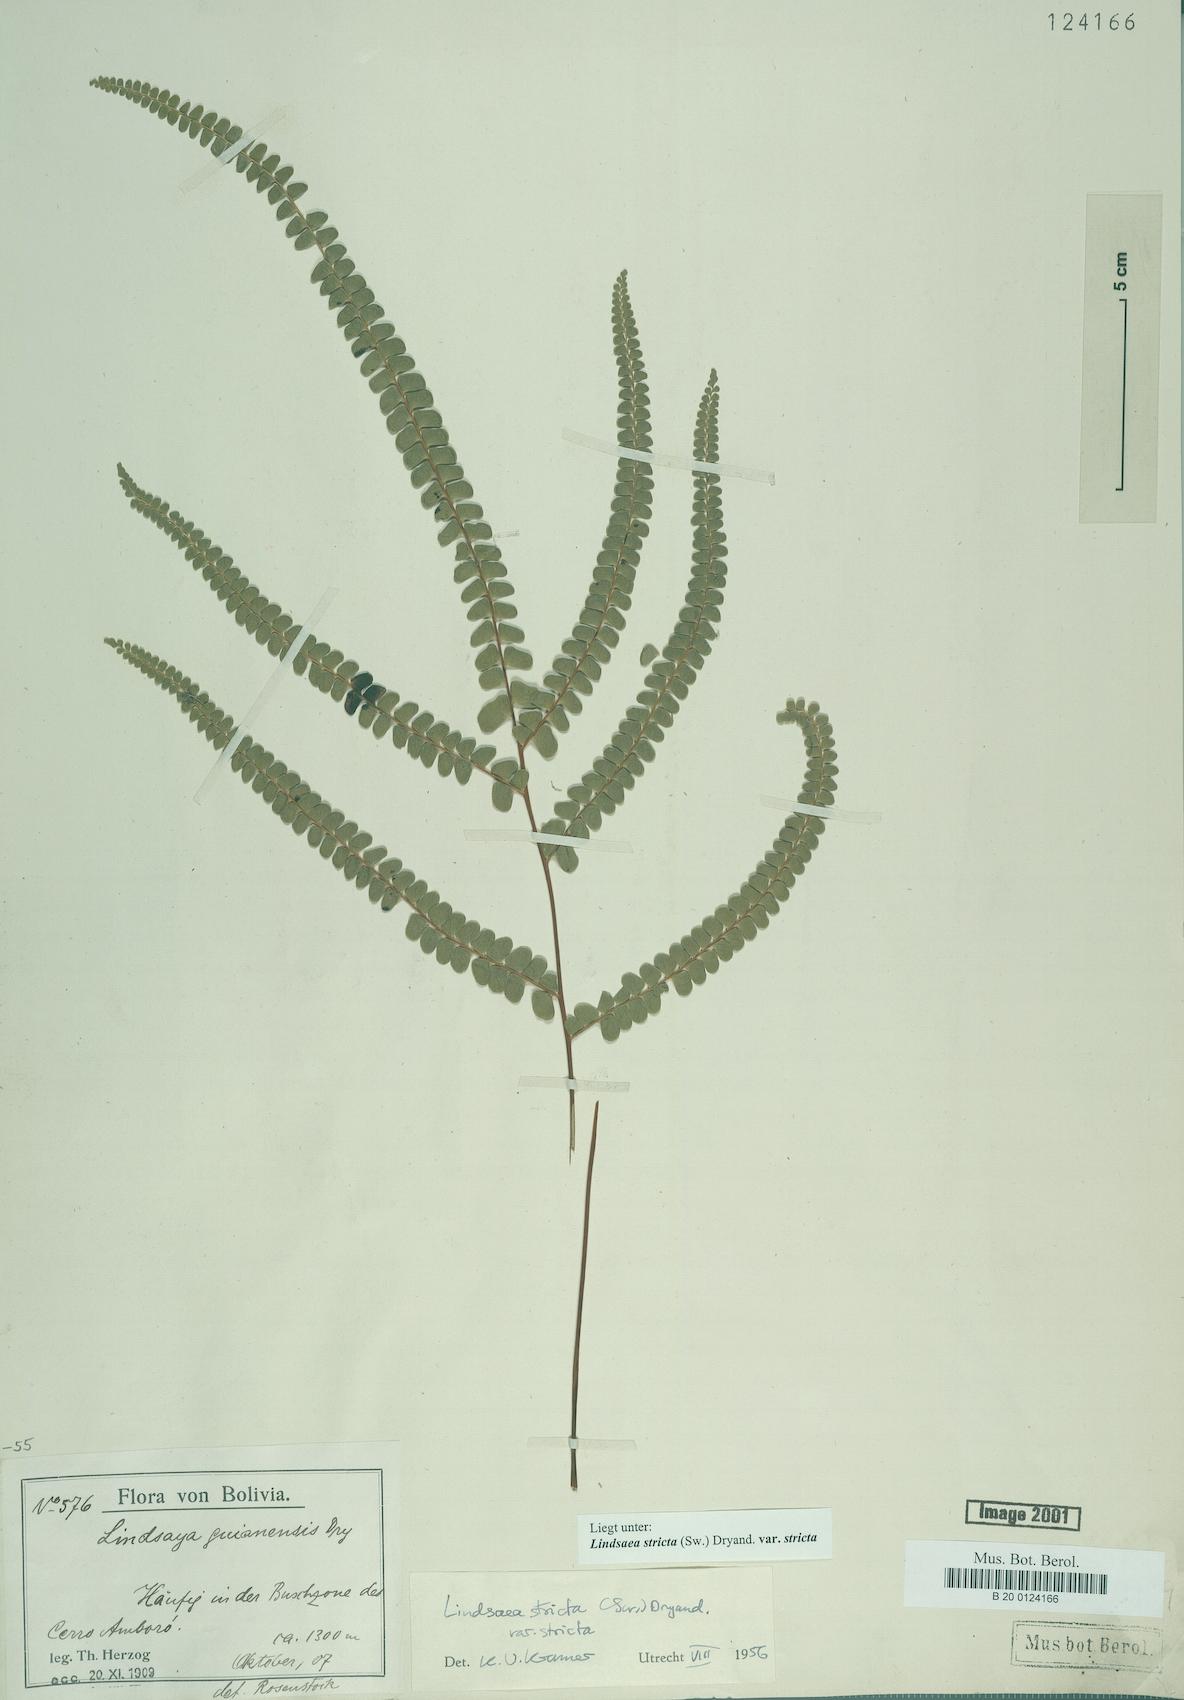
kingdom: Plantae
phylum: Tracheophyta
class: Polypodiopsida
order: Polypodiales
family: Lindsaeaceae
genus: Lindsaea
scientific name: Lindsaea stricta
